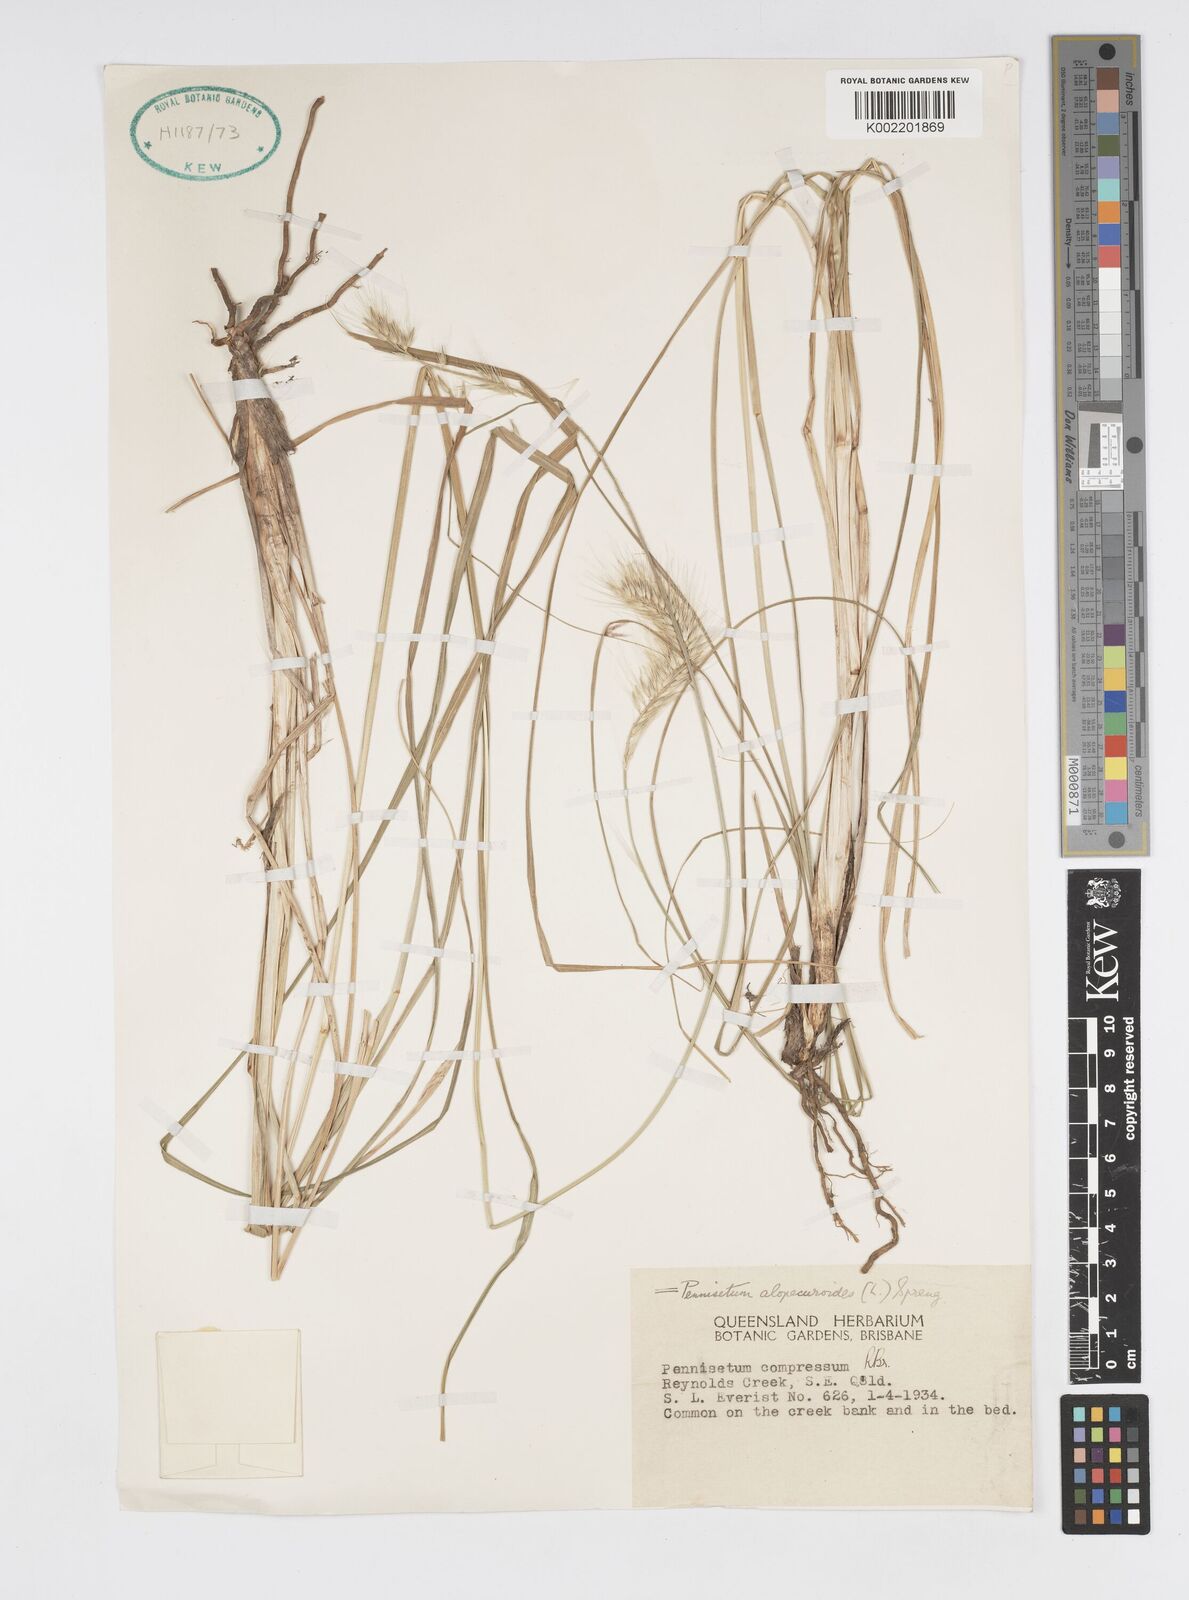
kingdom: Plantae
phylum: Tracheophyta
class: Liliopsida
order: Poales
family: Poaceae
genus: Cenchrus
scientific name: Cenchrus alopecuroides
